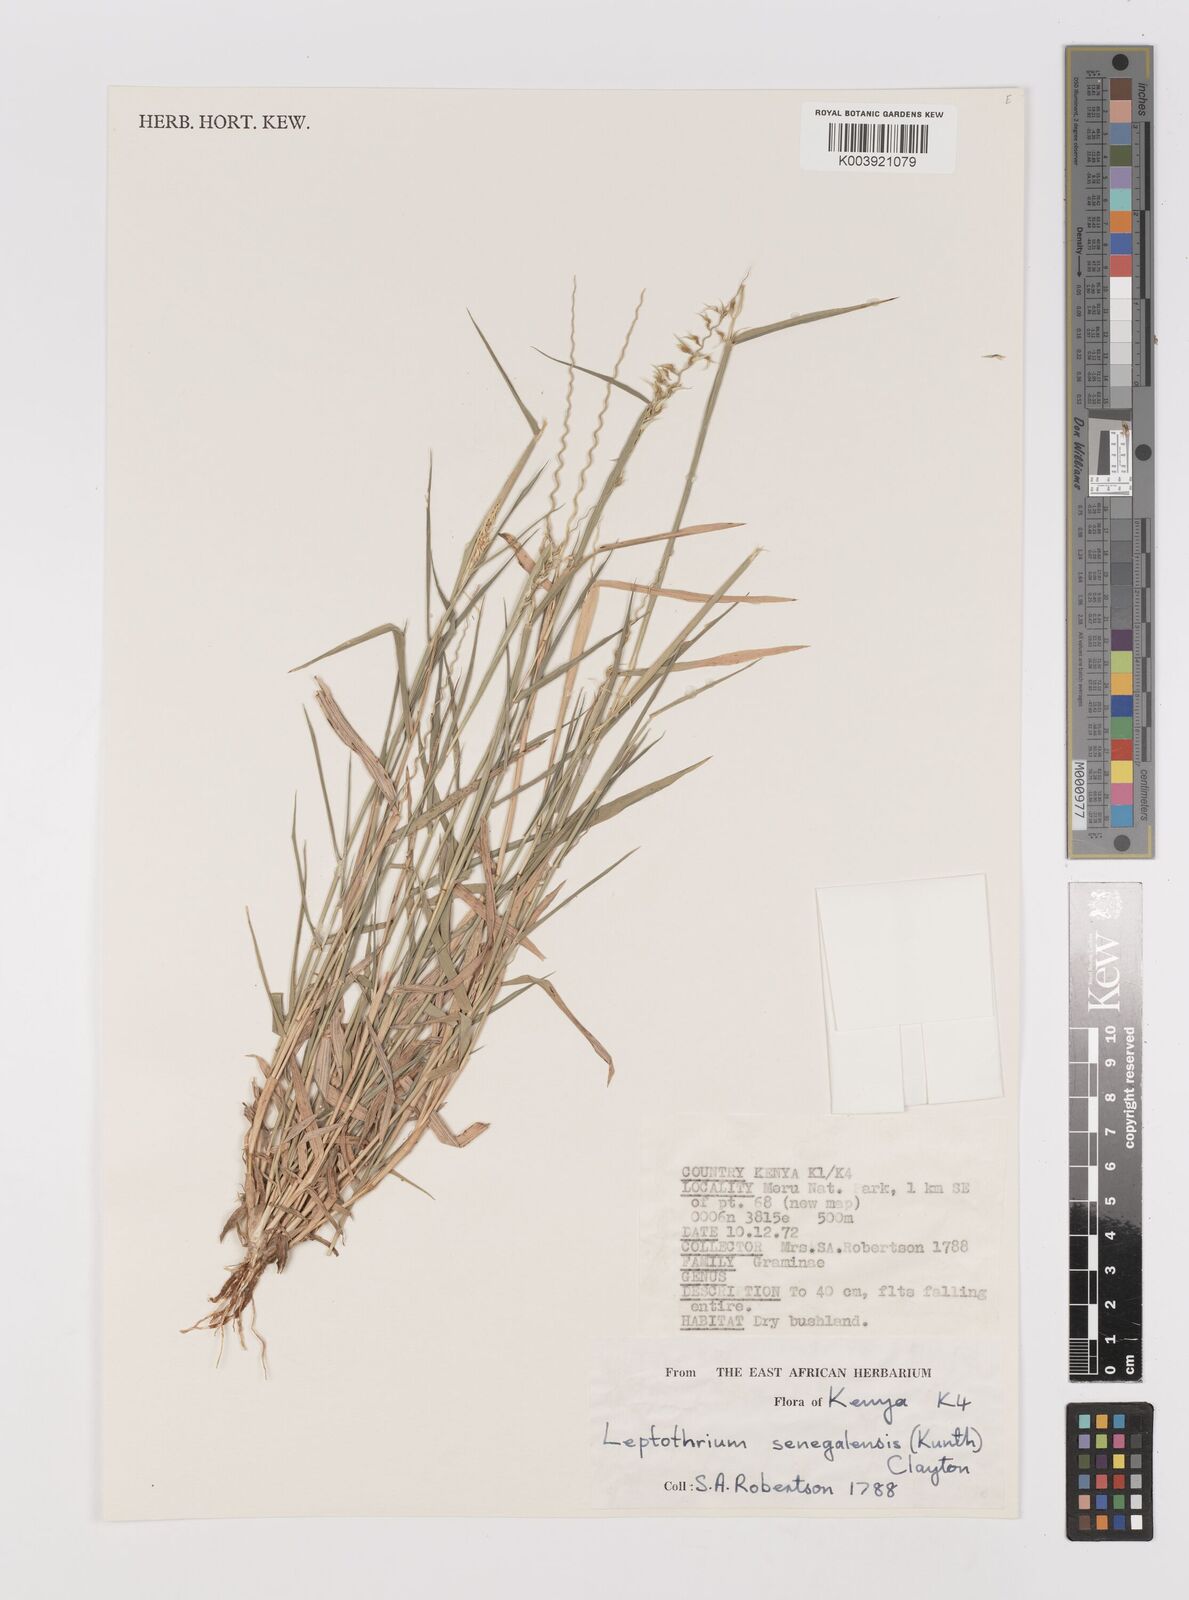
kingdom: Plantae
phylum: Tracheophyta
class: Liliopsida
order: Poales
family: Poaceae
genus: Leptothrium
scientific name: Leptothrium senegalense
